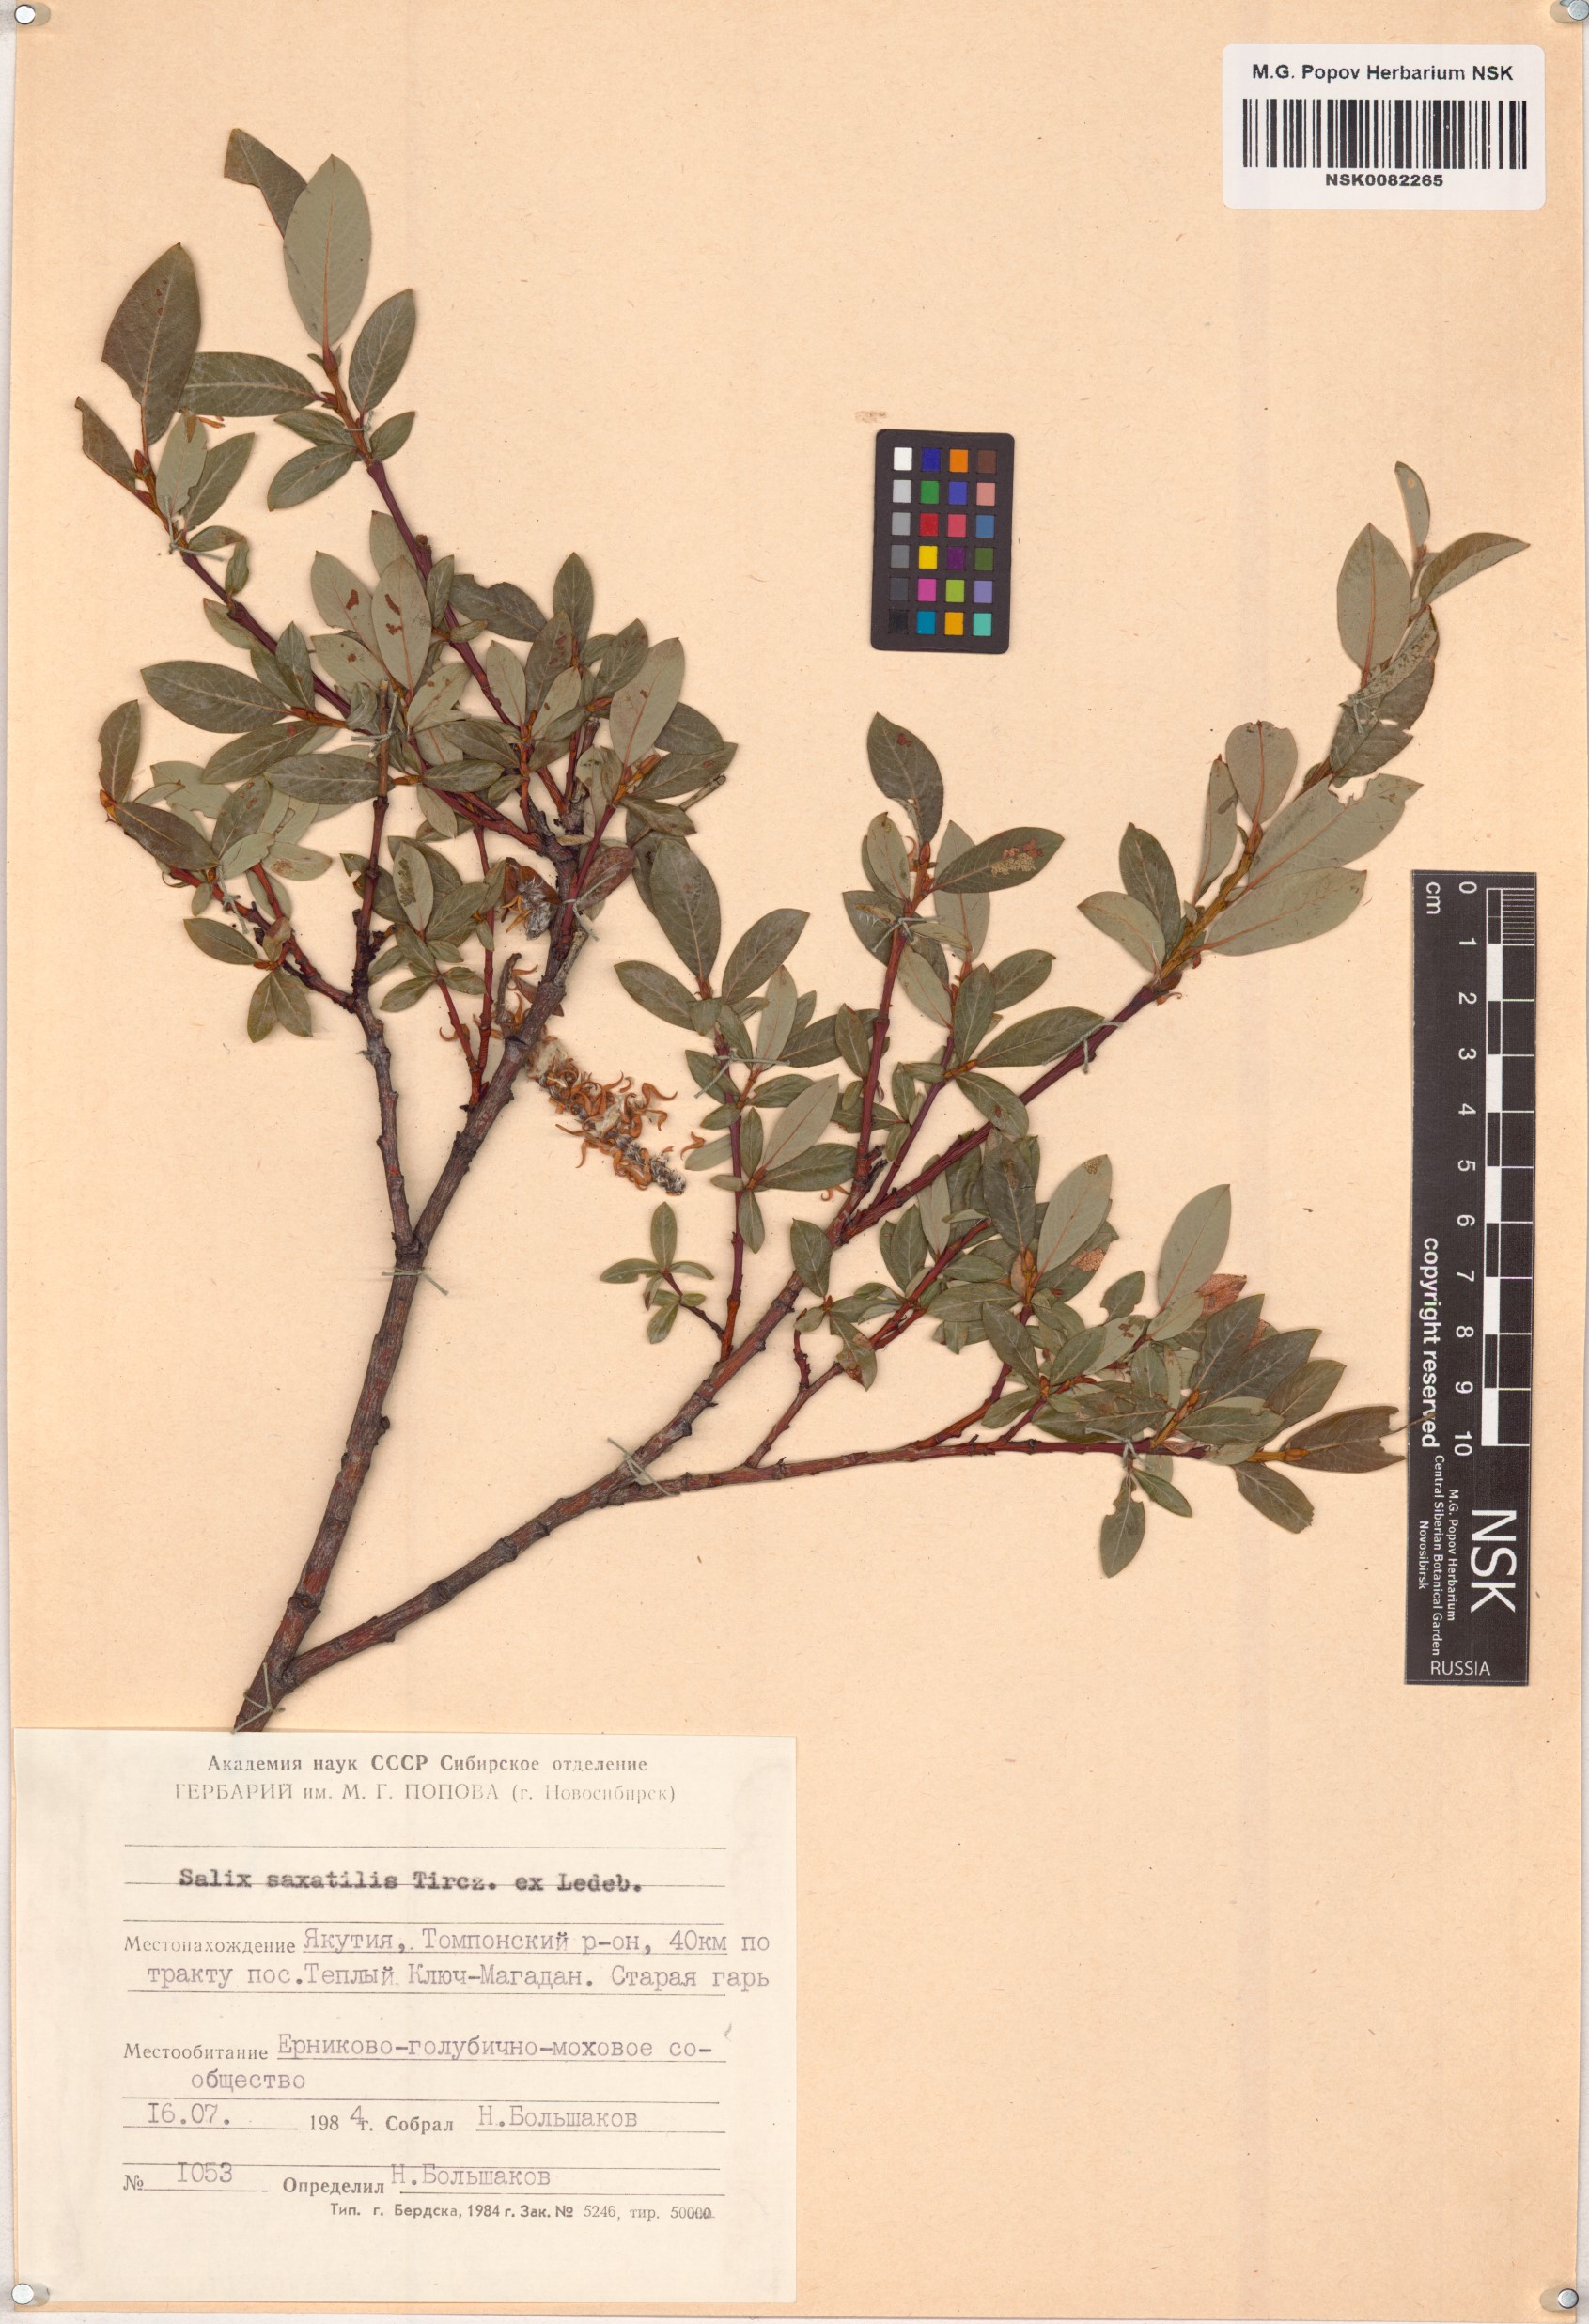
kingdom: Plantae
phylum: Tracheophyta
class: Magnoliopsida
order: Malpighiales
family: Salicaceae
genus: Salix
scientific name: Salix saxatilis
